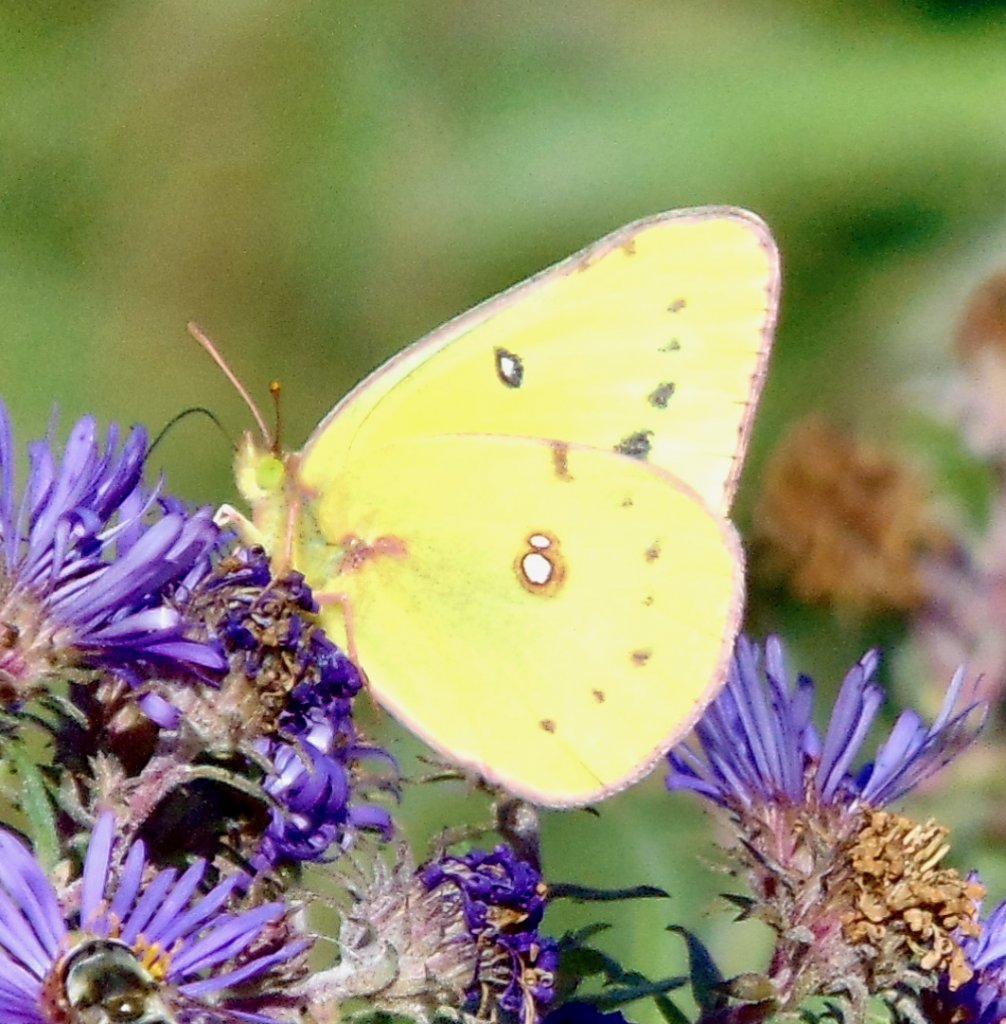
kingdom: Animalia
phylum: Arthropoda
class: Insecta
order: Lepidoptera
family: Pieridae
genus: Colias
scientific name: Colias philodice
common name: Clouded Sulphur
